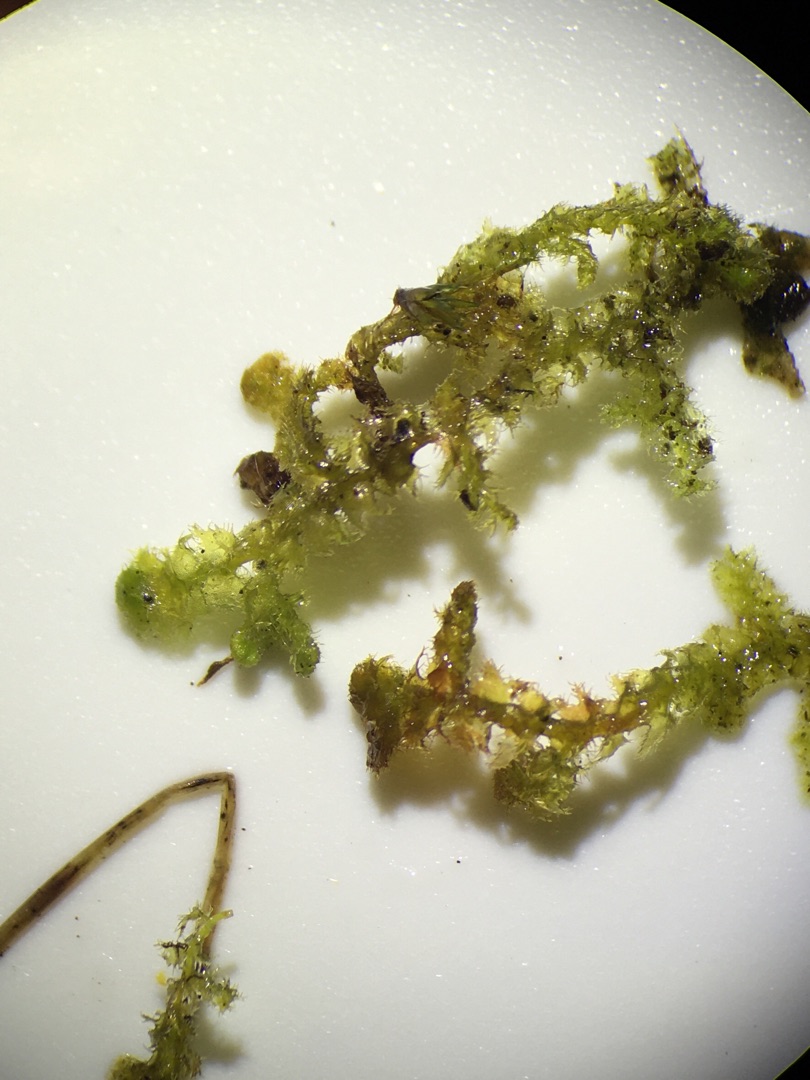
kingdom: Plantae
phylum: Marchantiophyta
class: Jungermanniopsida
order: Ptilidiales
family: Ptilidiaceae
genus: Ptilidium
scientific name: Ptilidium ciliare
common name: Almindelig frynsemos
